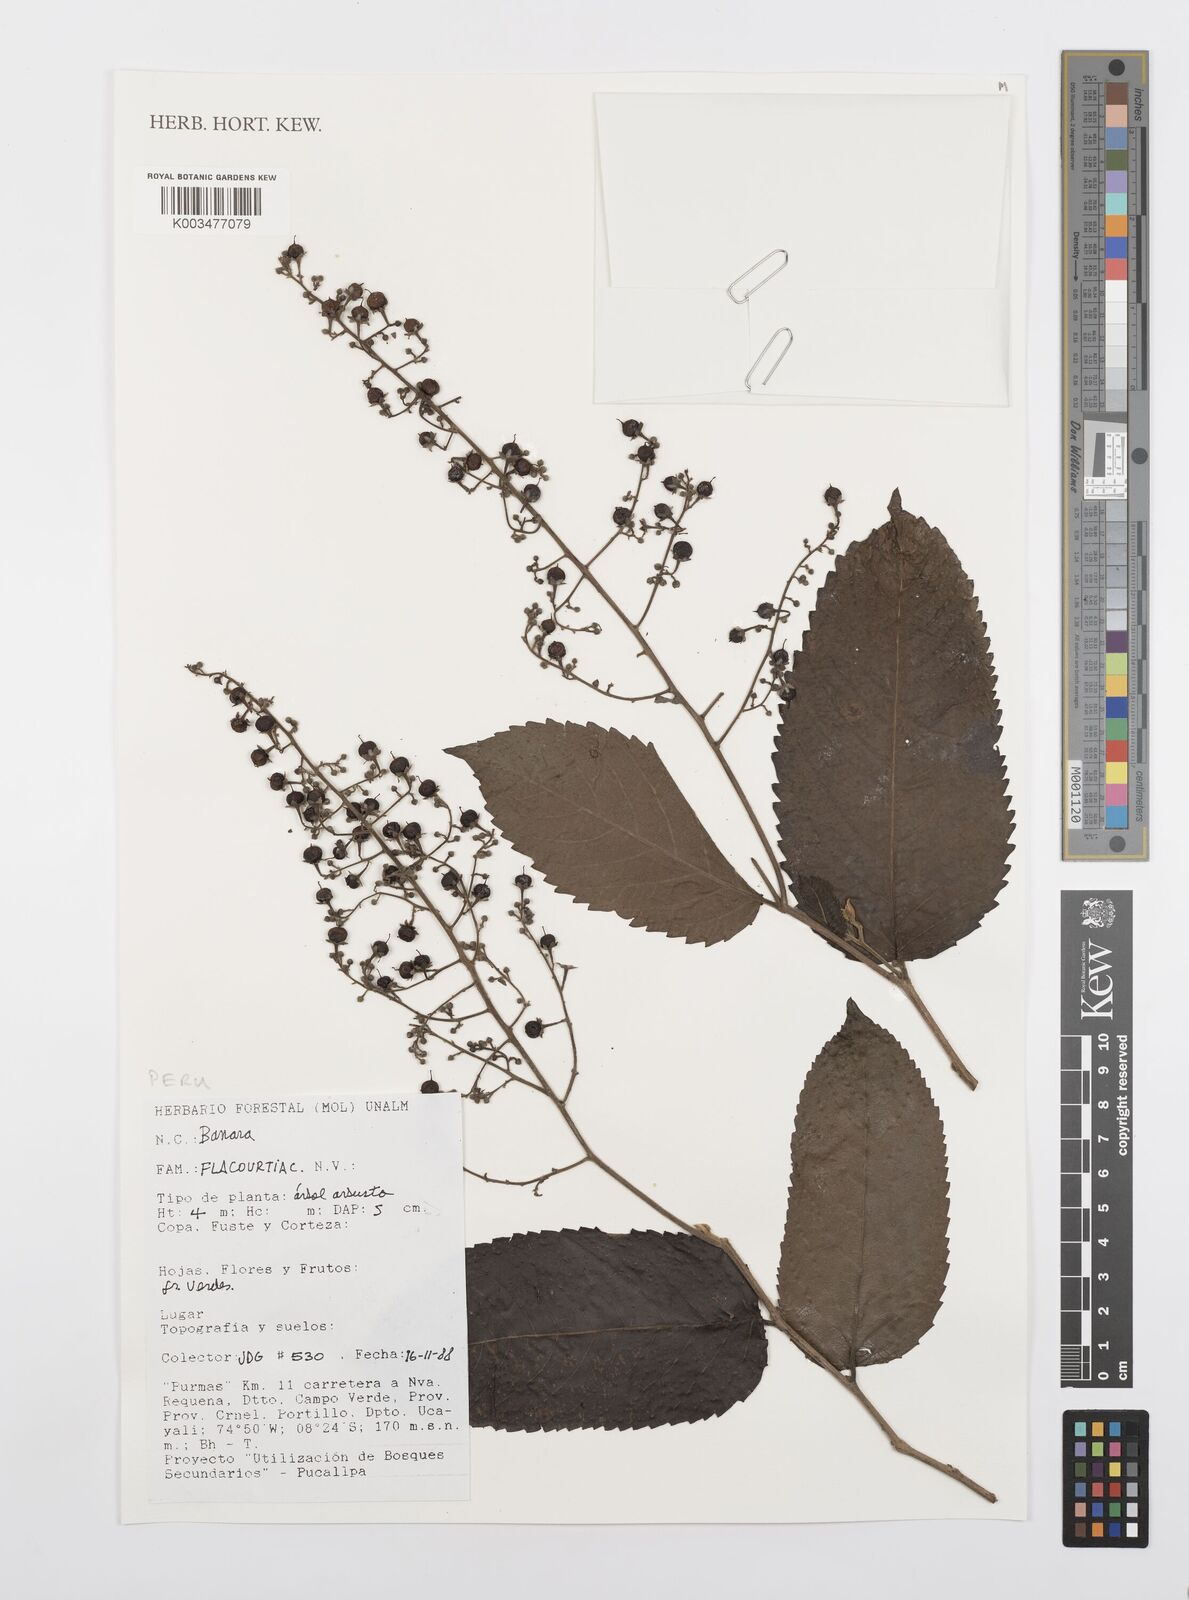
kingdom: Plantae
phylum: Tracheophyta
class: Magnoliopsida
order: Malpighiales
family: Salicaceae
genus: Banara
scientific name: Banara
